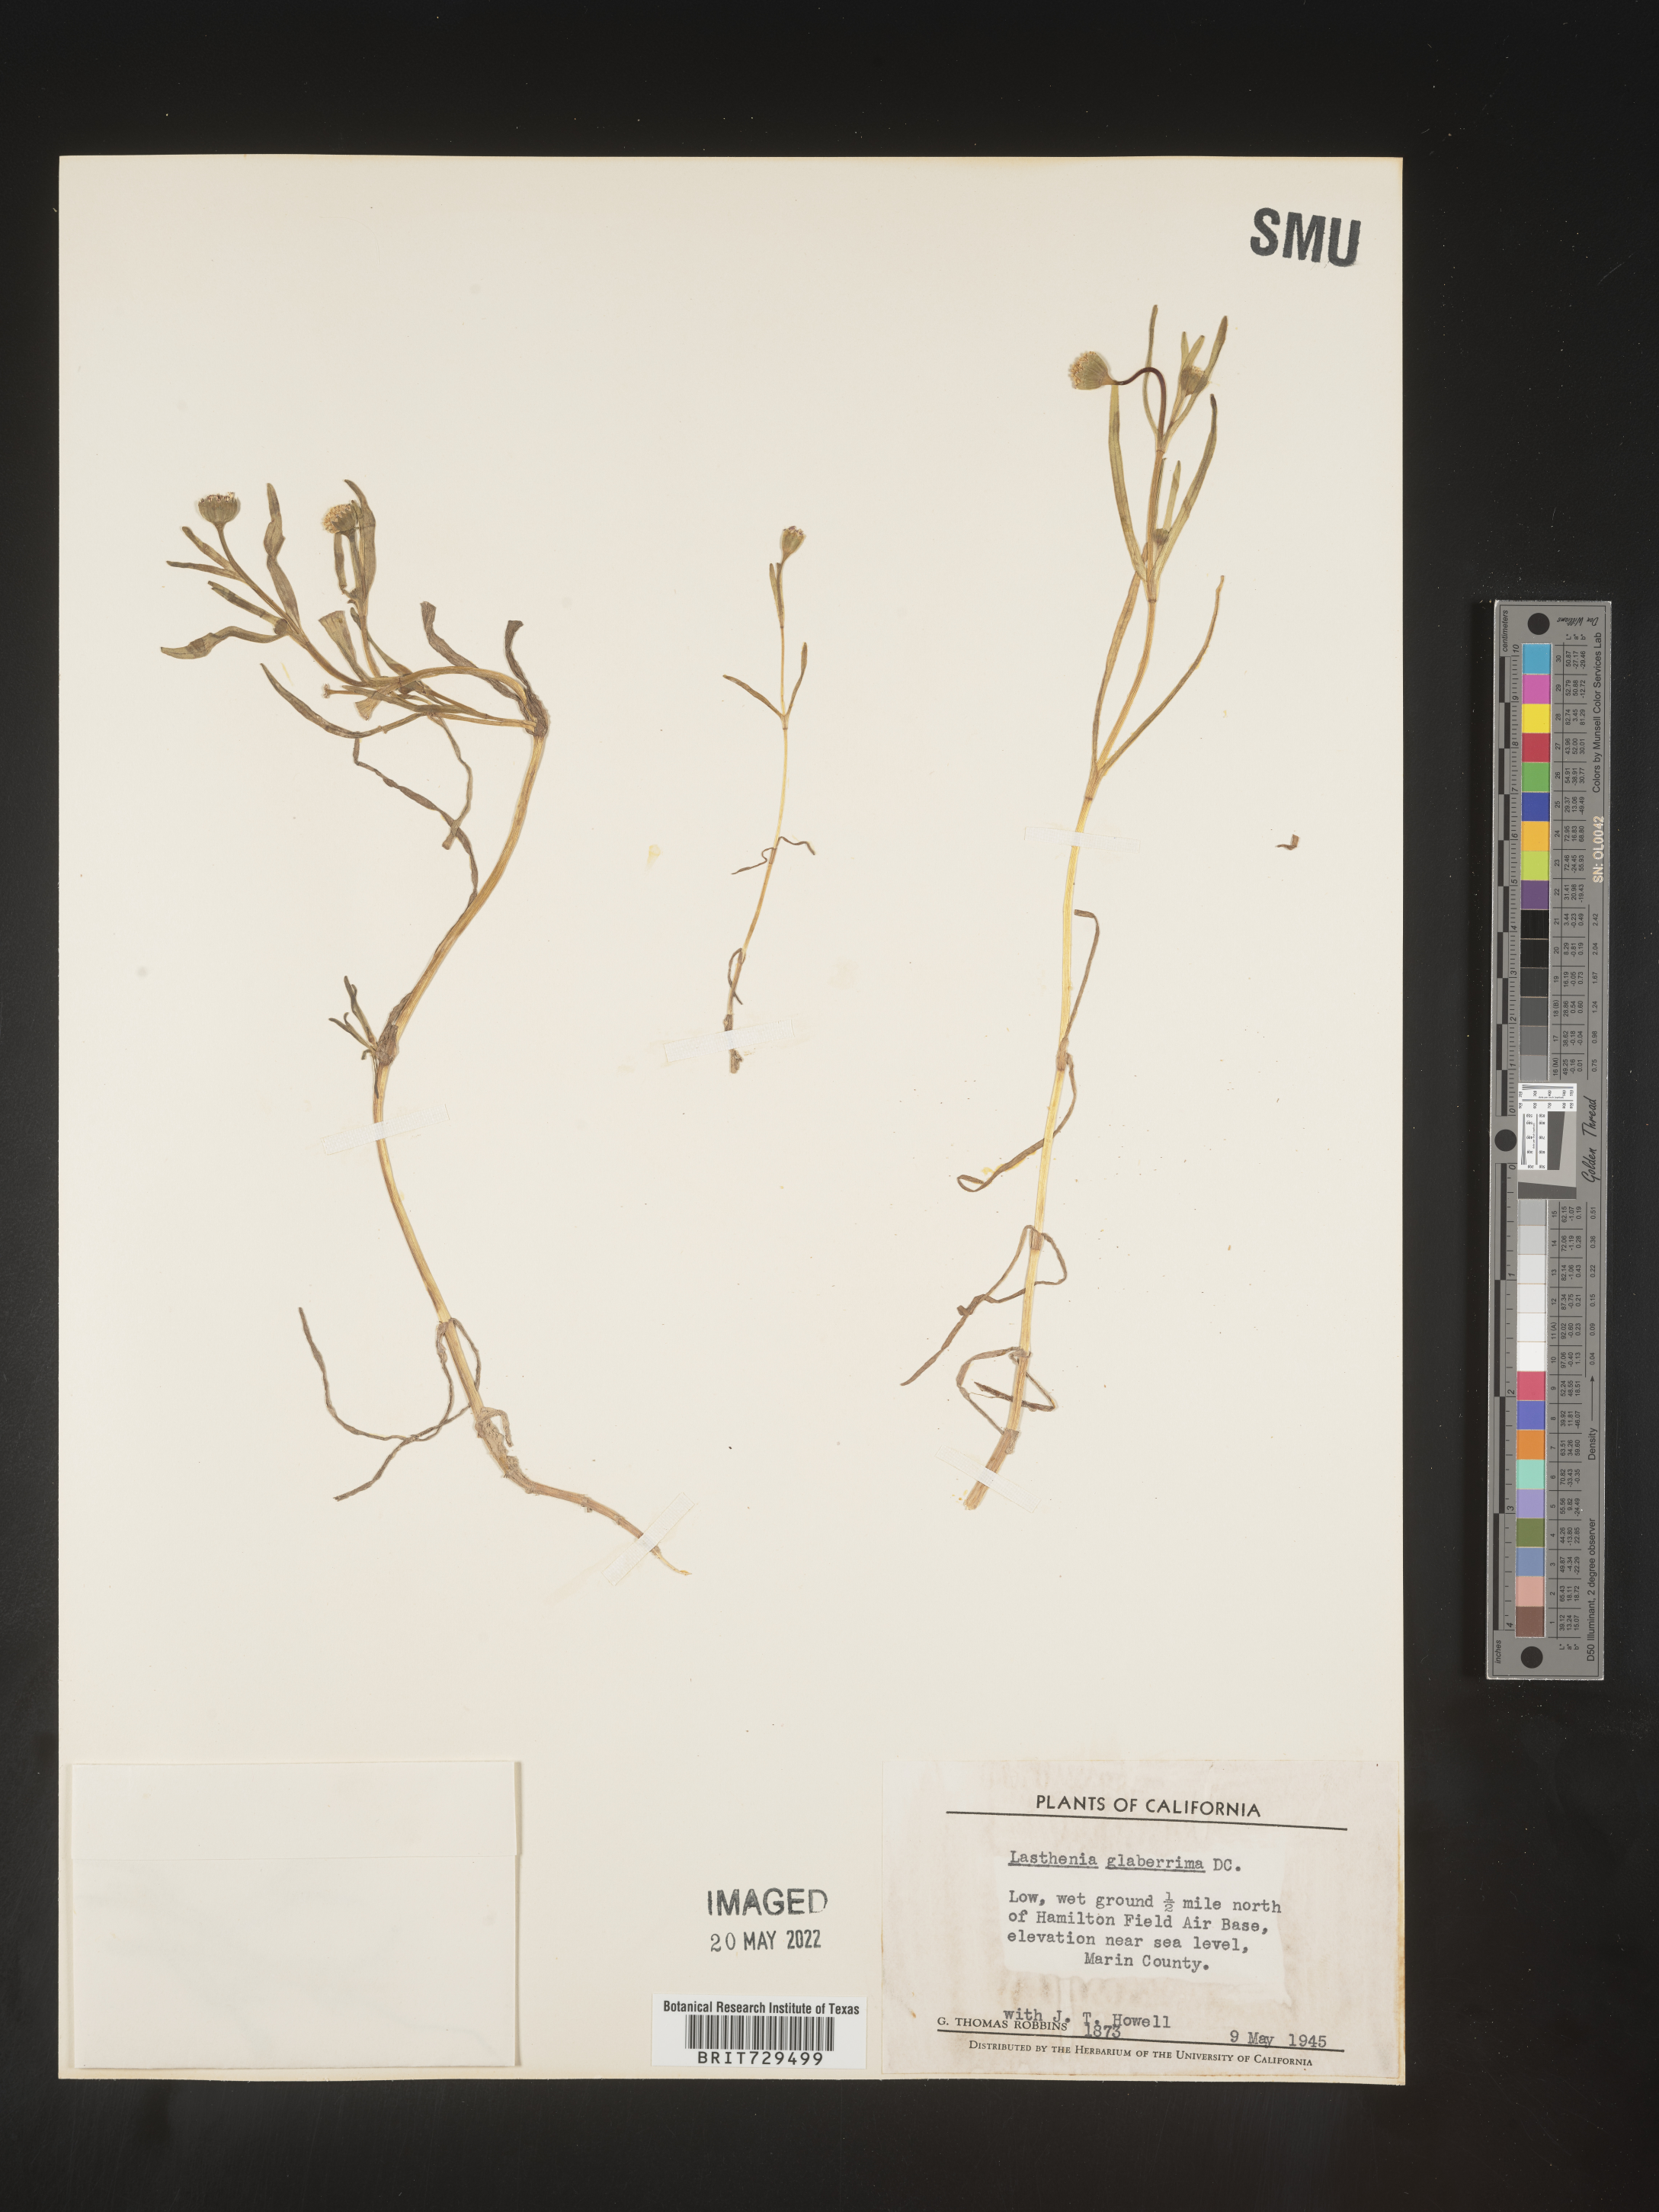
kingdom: Plantae
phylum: Tracheophyta
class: Magnoliopsida
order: Asterales
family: Asteraceae
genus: Lasthenia
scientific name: Lasthenia
